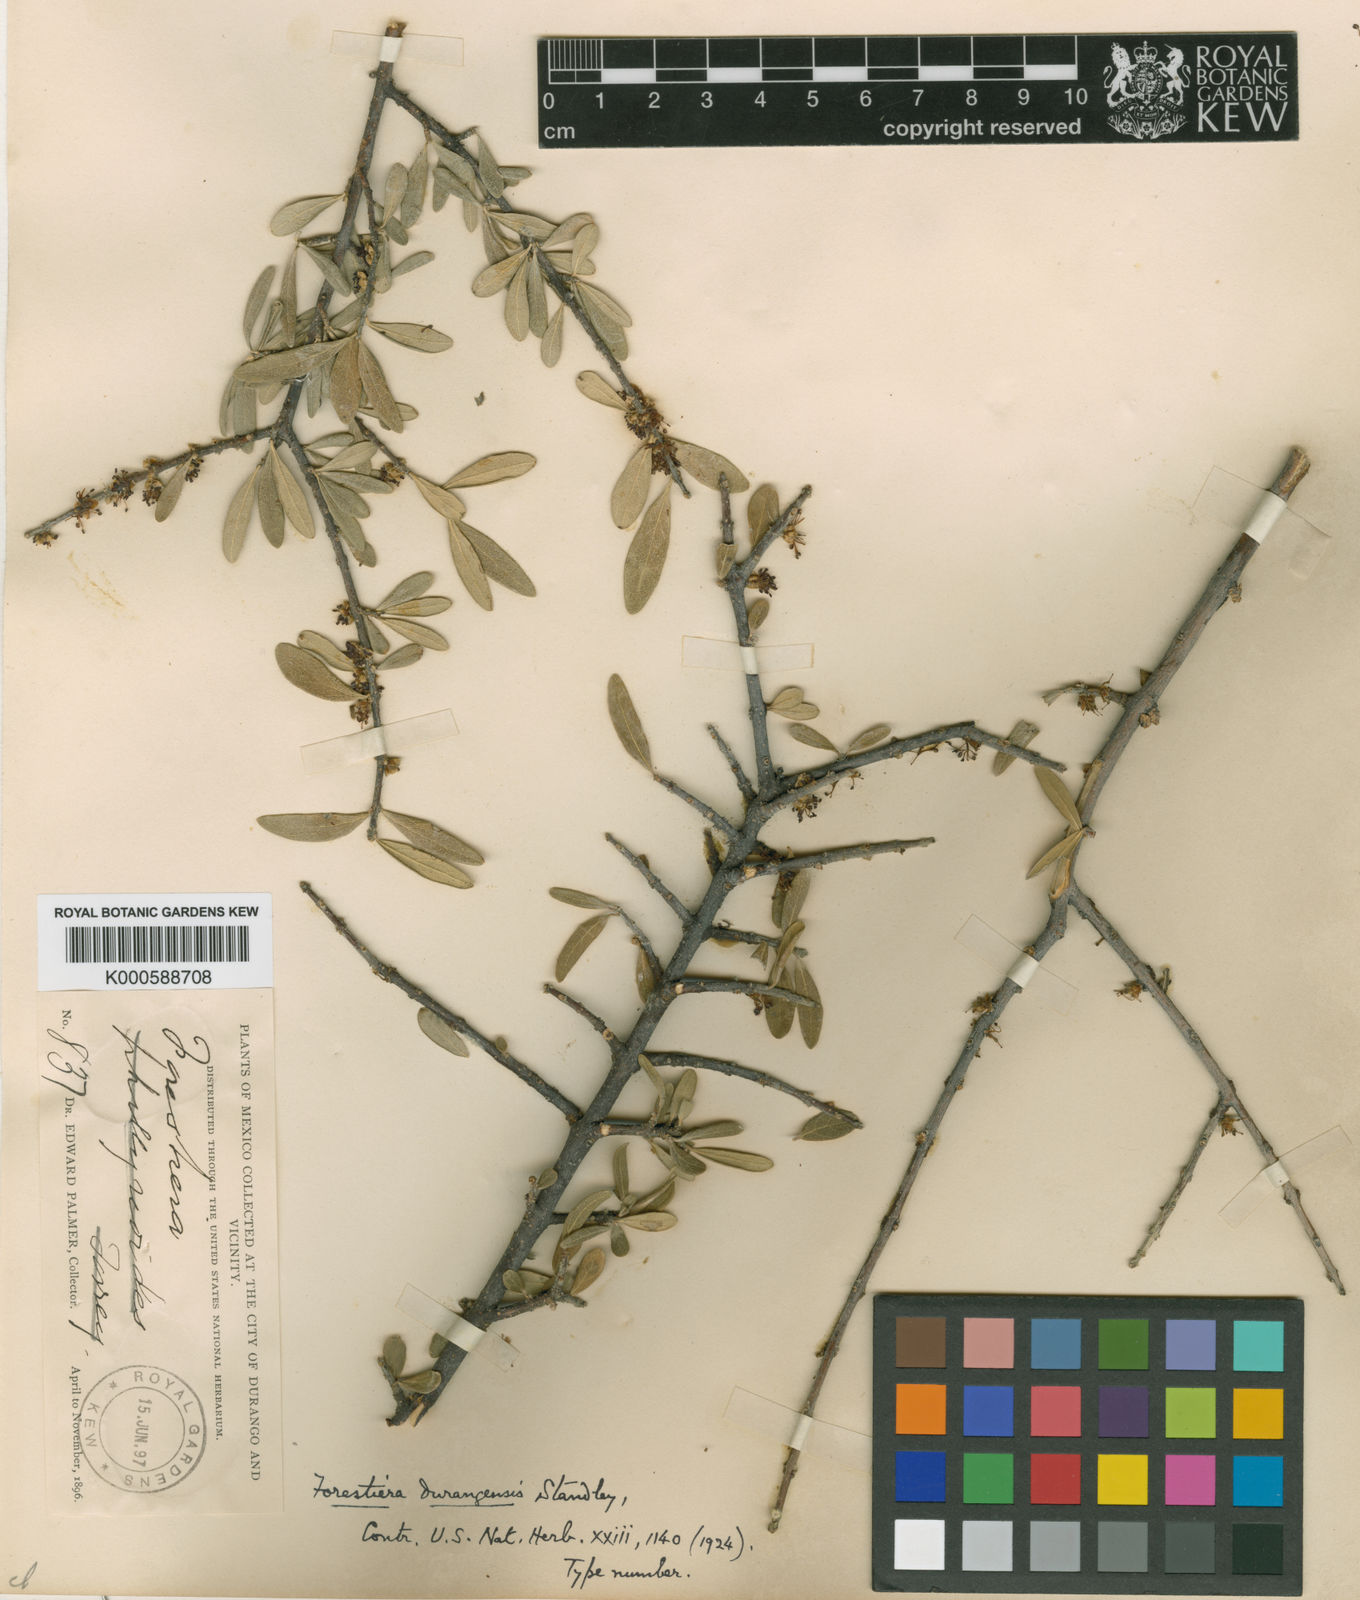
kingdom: Plantae
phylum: Tracheophyta
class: Magnoliopsida
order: Lamiales
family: Oleaceae
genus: Forestiera
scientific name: Forestiera durangensis
